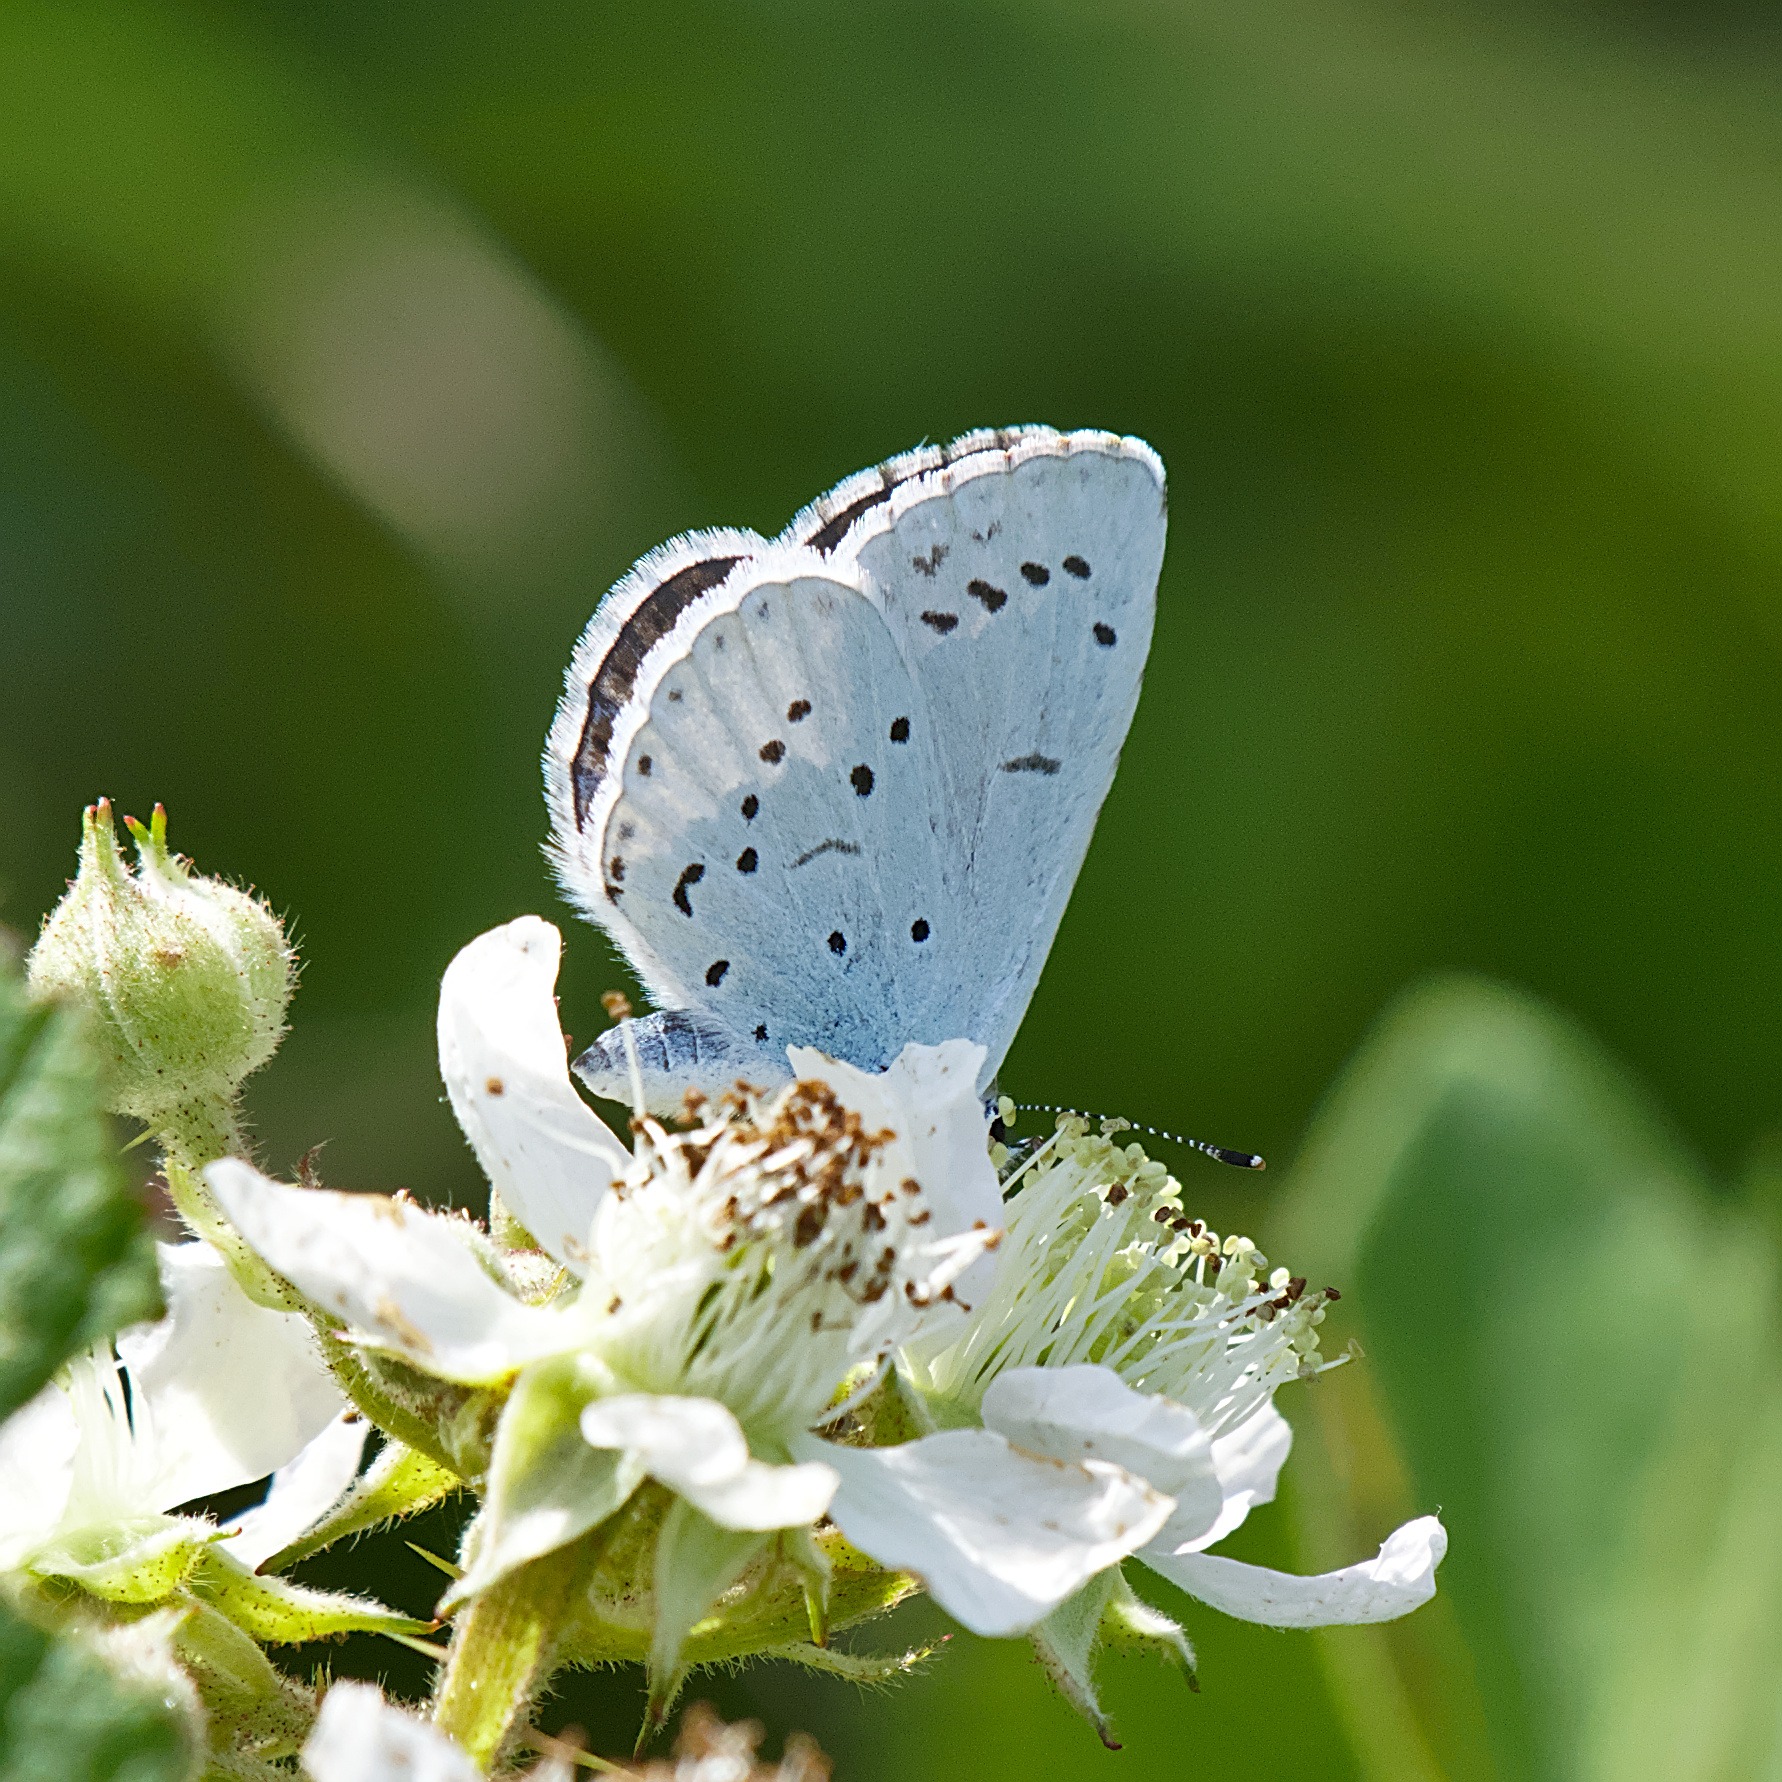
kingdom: Animalia
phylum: Arthropoda
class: Insecta
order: Lepidoptera
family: Lycaenidae
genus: Celastrina
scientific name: Celastrina argiolus
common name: Skovblåfugl
